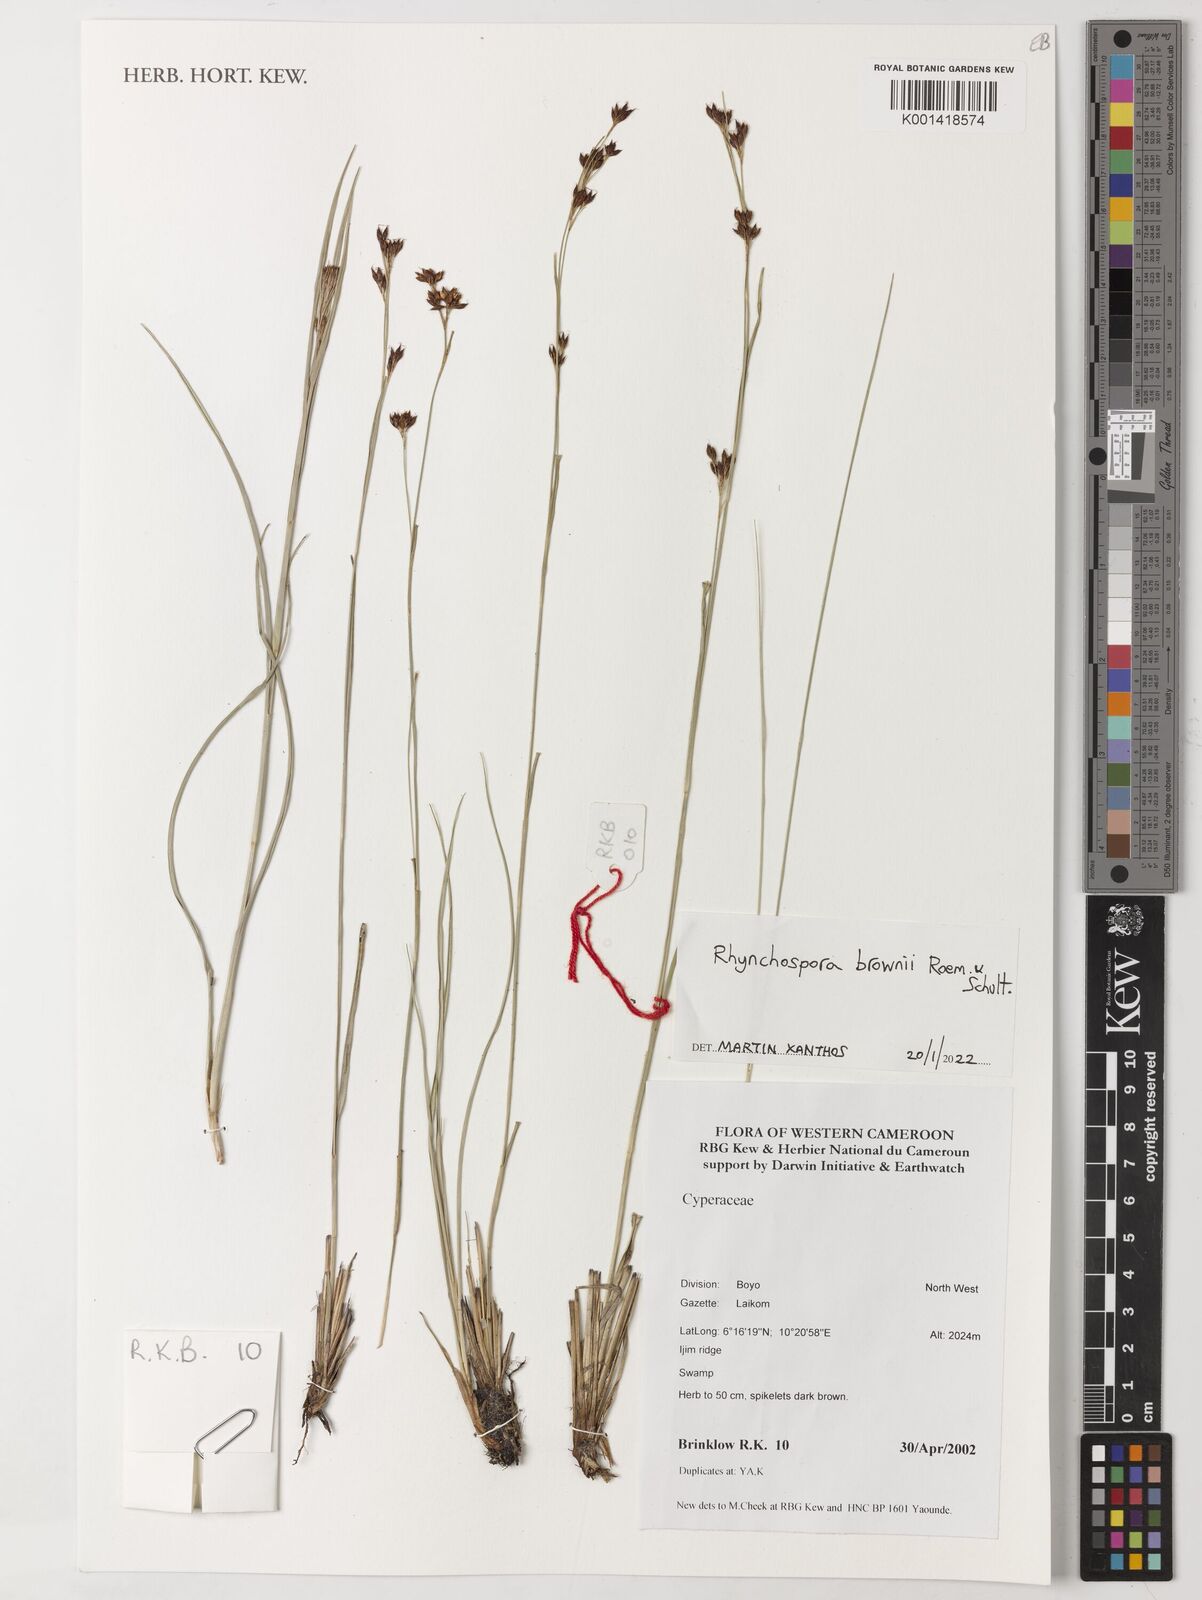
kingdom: Plantae
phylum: Tracheophyta
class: Liliopsida
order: Poales
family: Cyperaceae
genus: Rhynchospora
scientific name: Rhynchospora brownii
